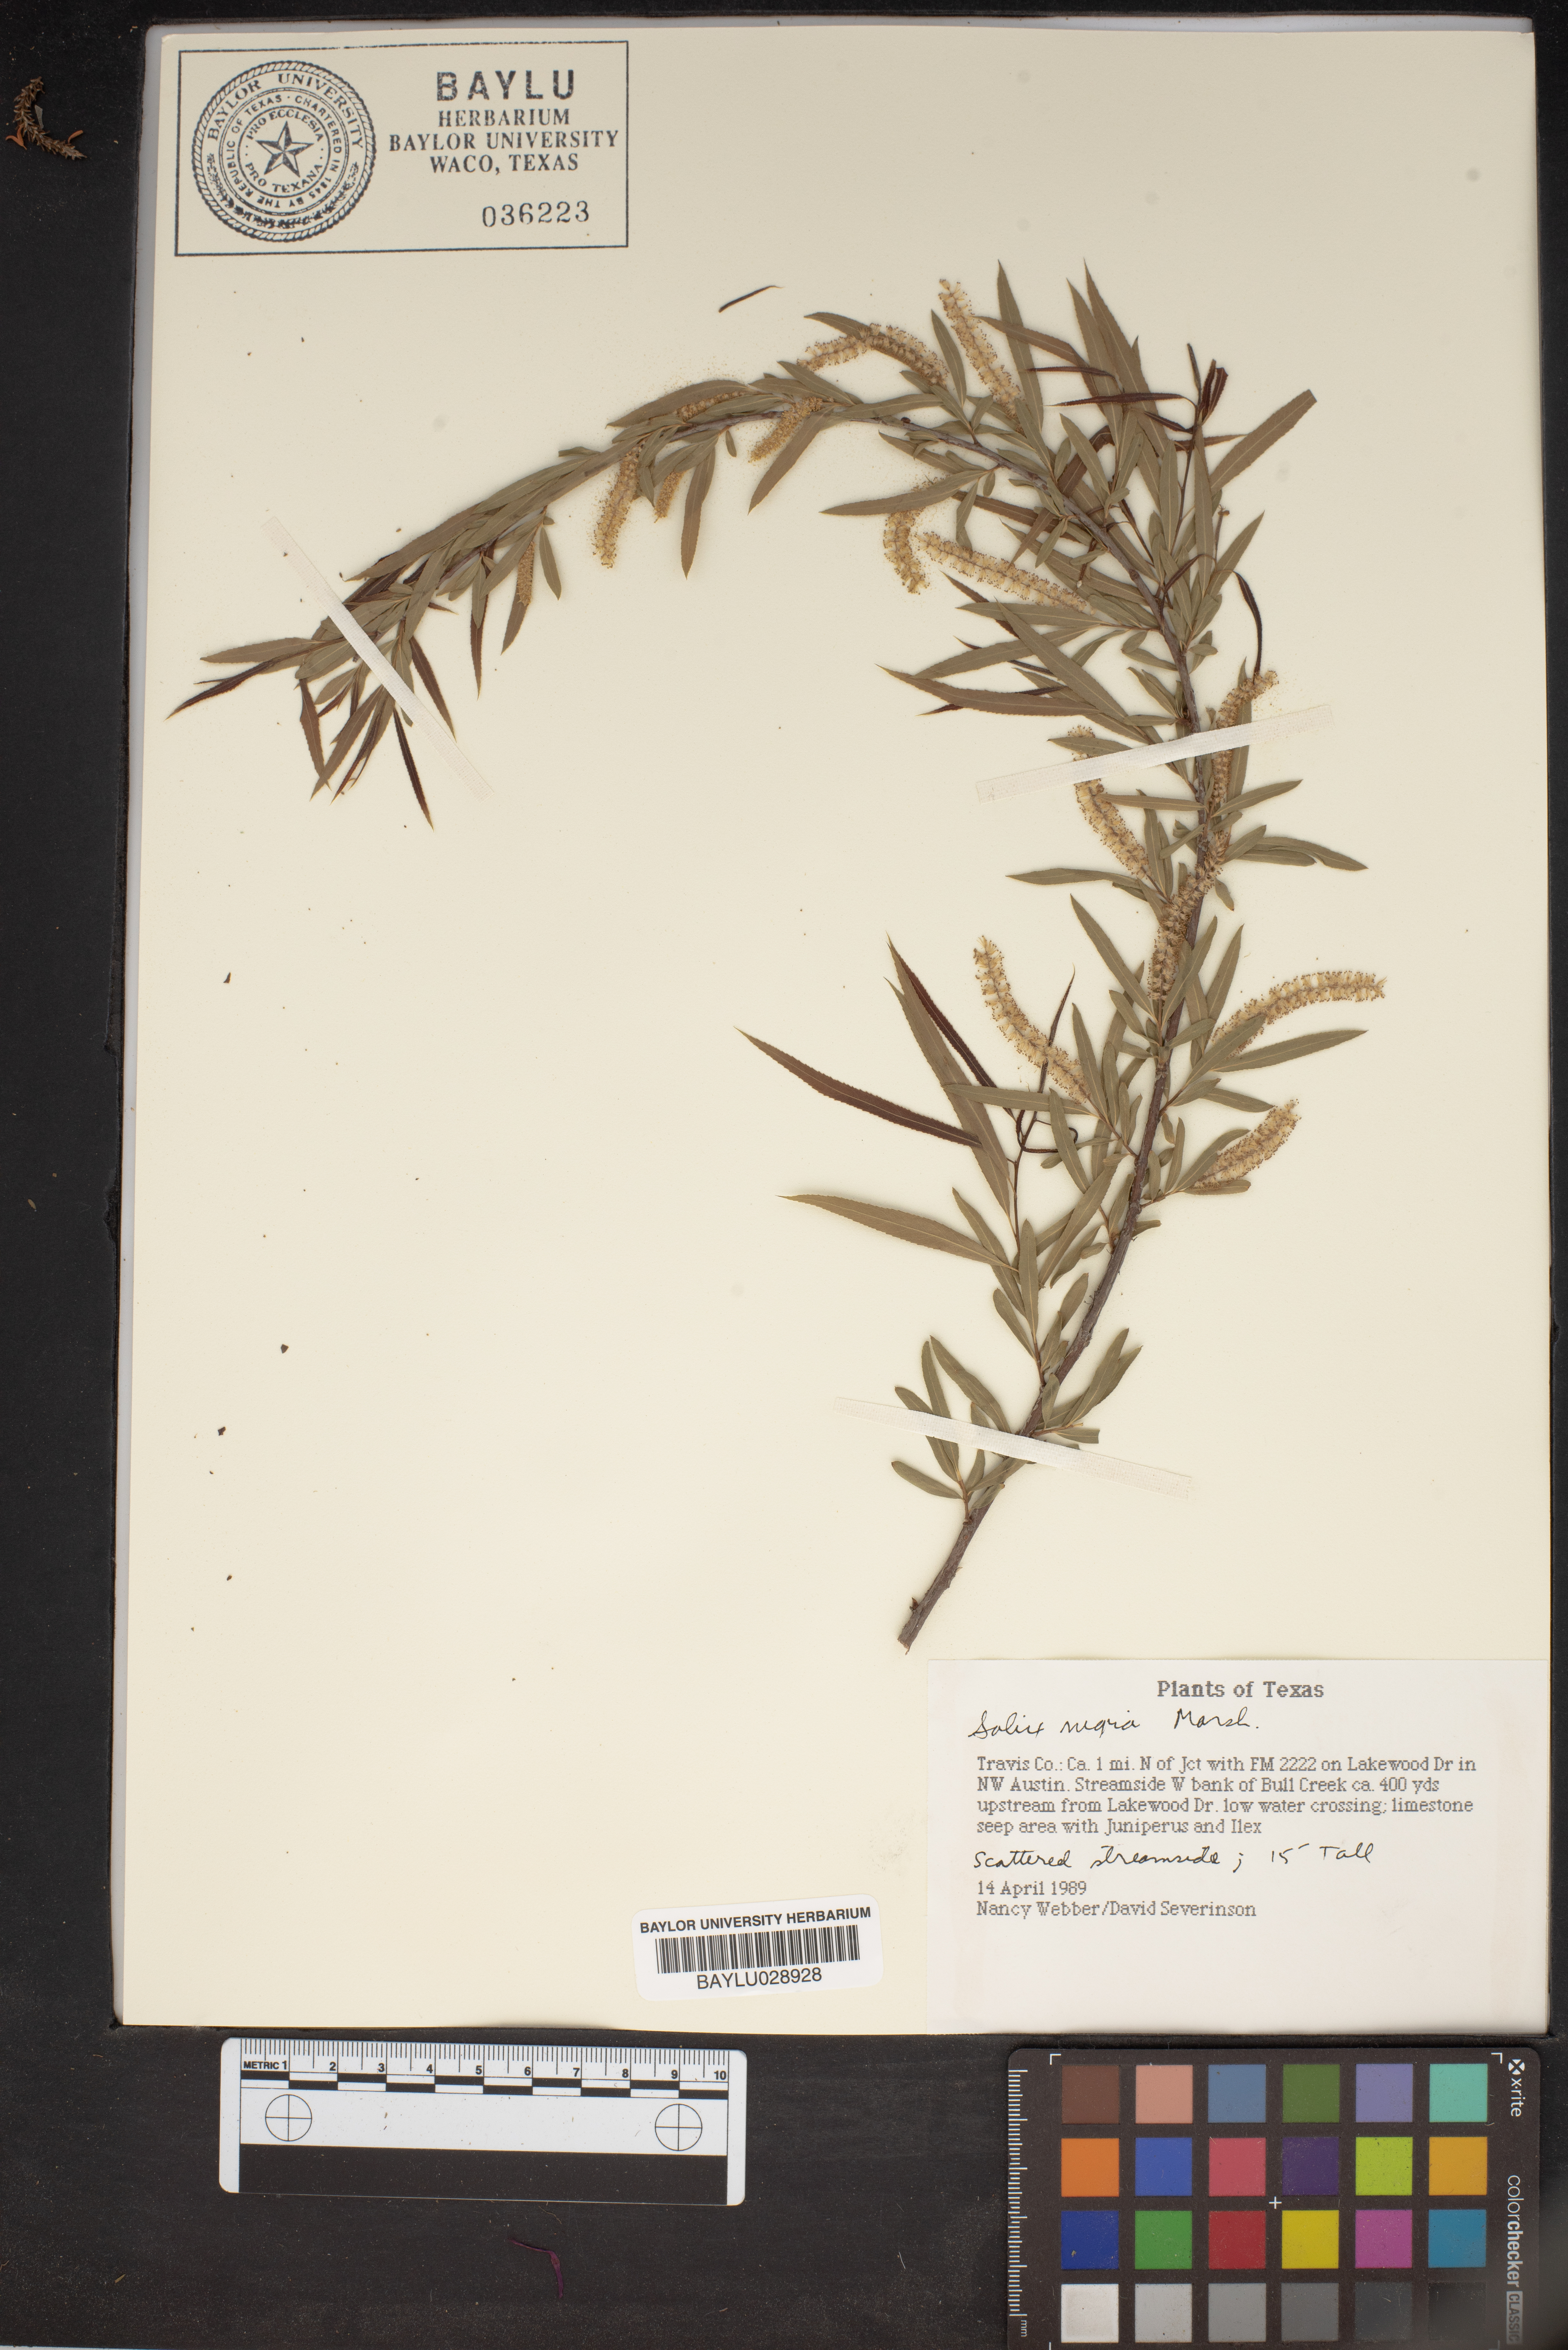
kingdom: Plantae
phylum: Tracheophyta
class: Magnoliopsida
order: Malpighiales
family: Salicaceae
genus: Salix
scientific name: Salix nigra
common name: Black willow
